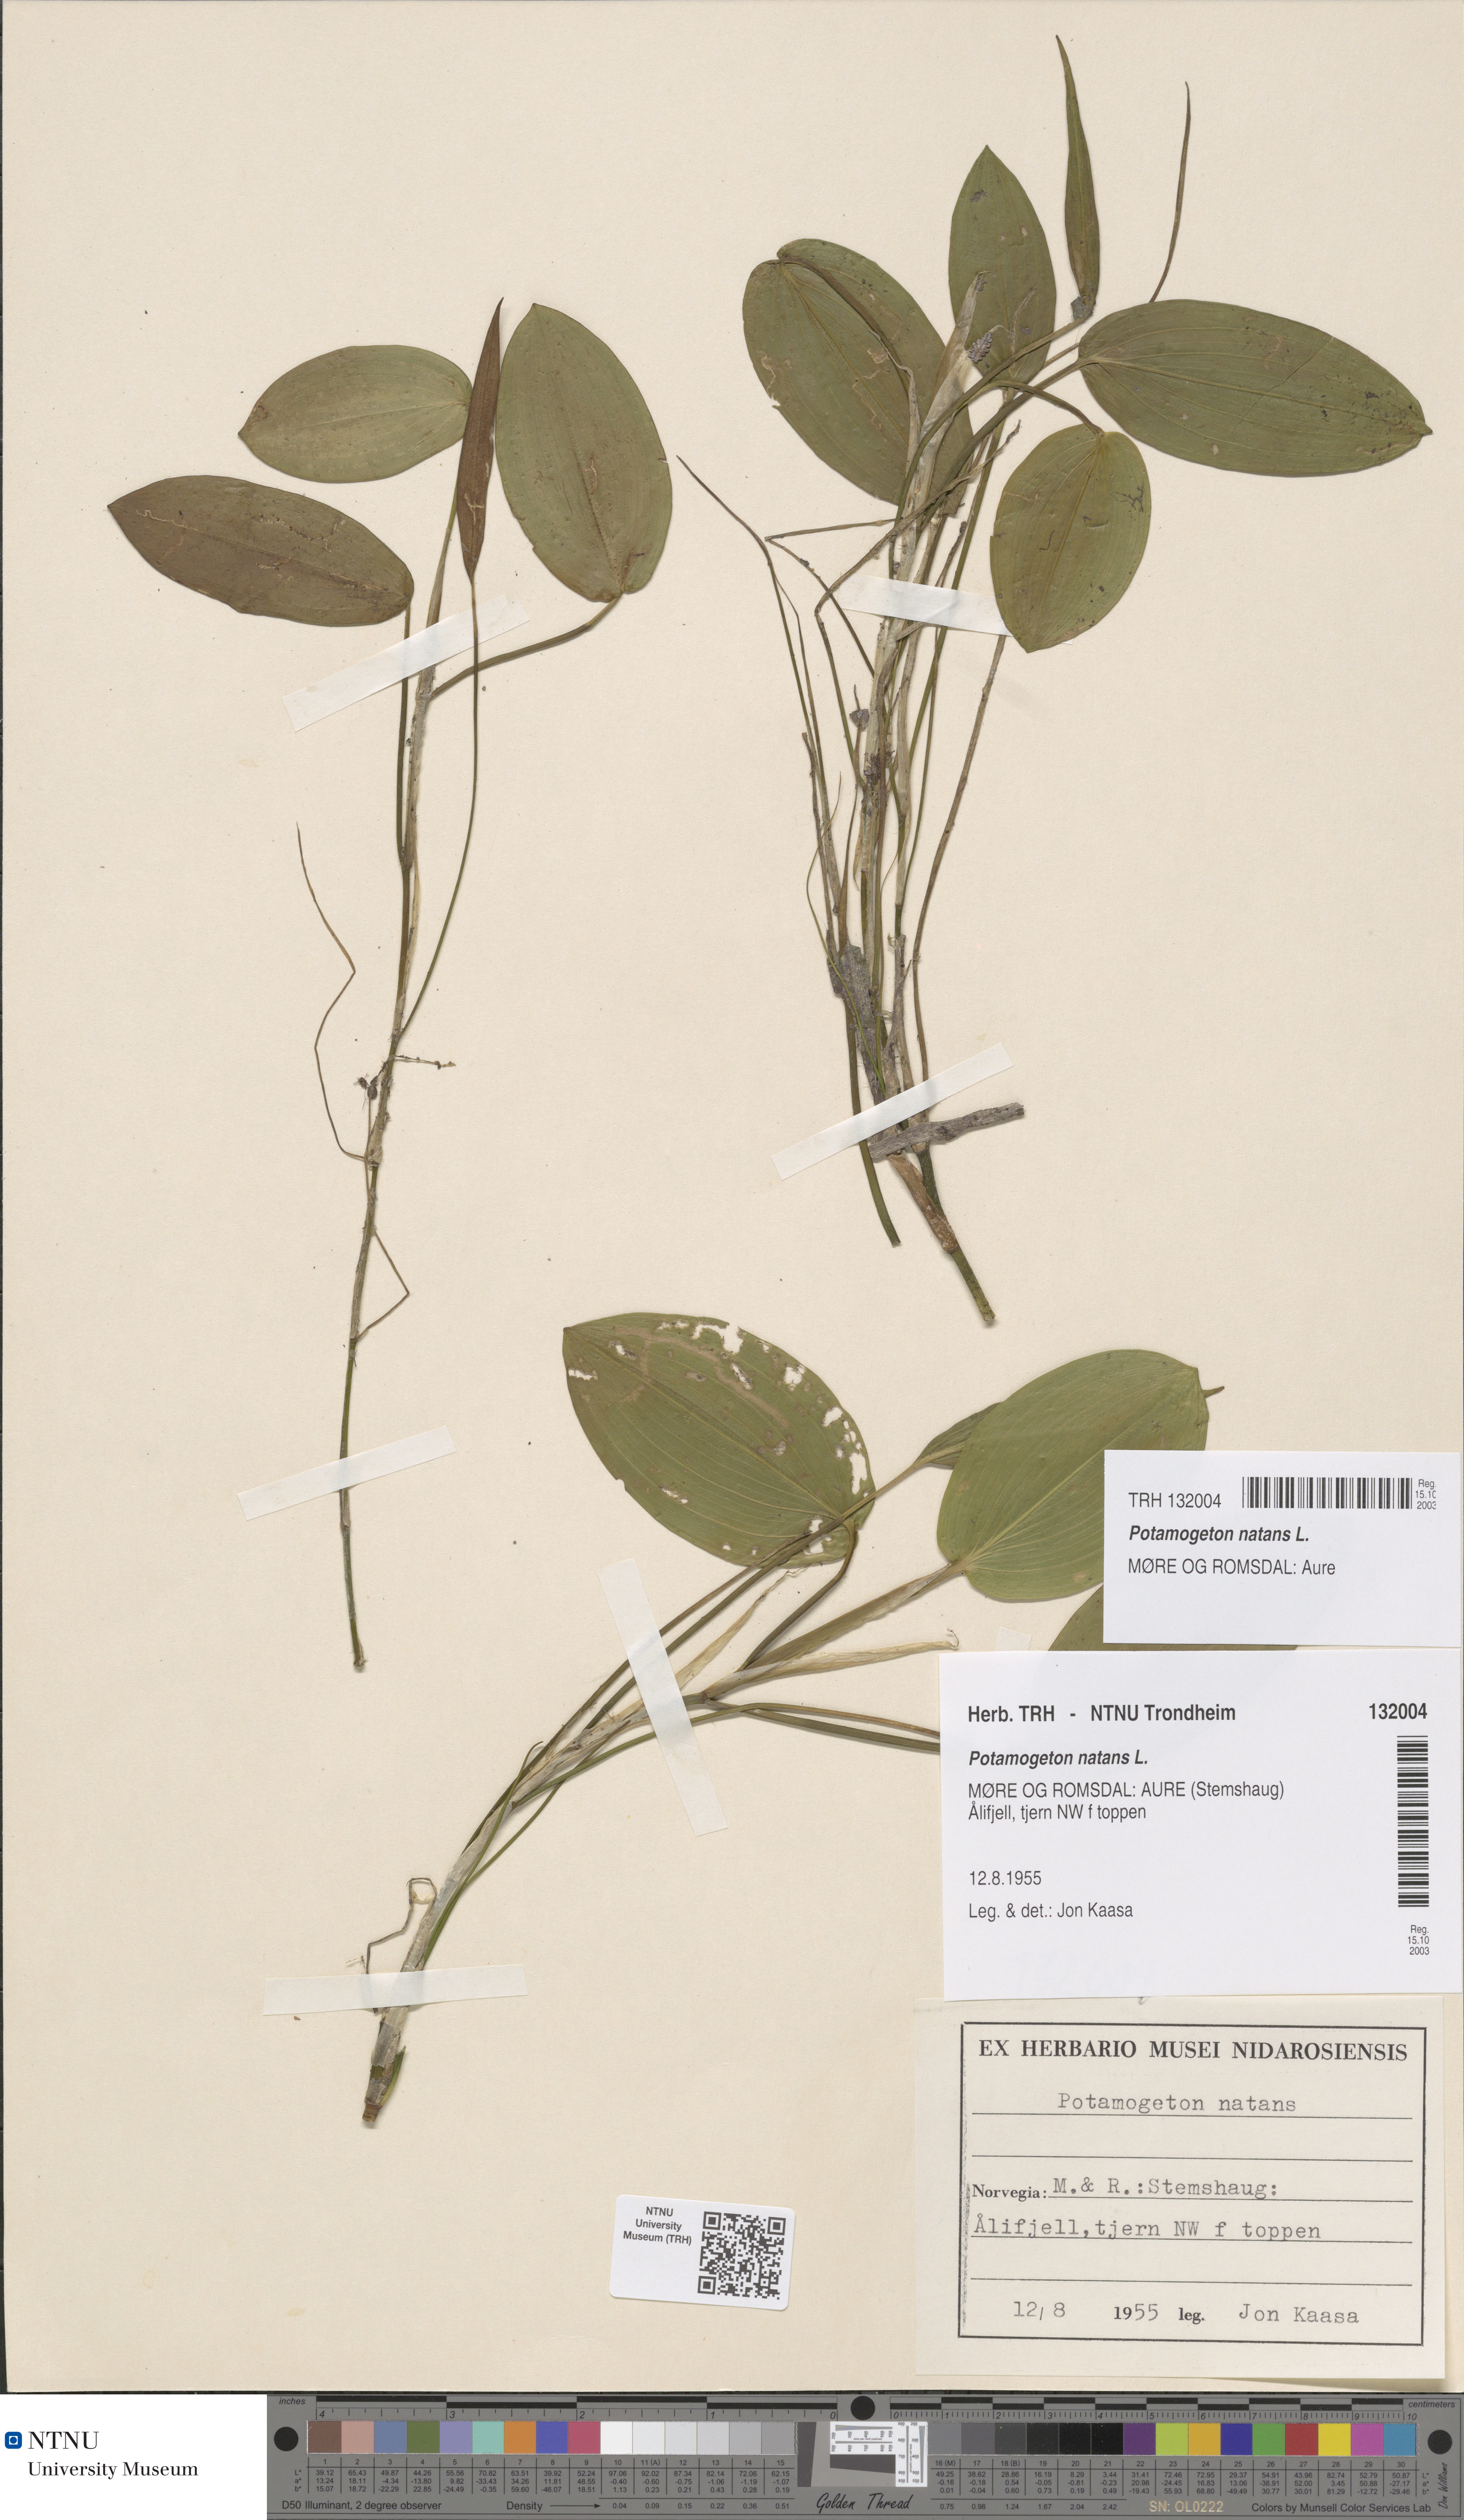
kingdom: Plantae
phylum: Tracheophyta
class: Liliopsida
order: Alismatales
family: Potamogetonaceae
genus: Potamogeton
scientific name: Potamogeton natans
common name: Broad-leaved pondweed
